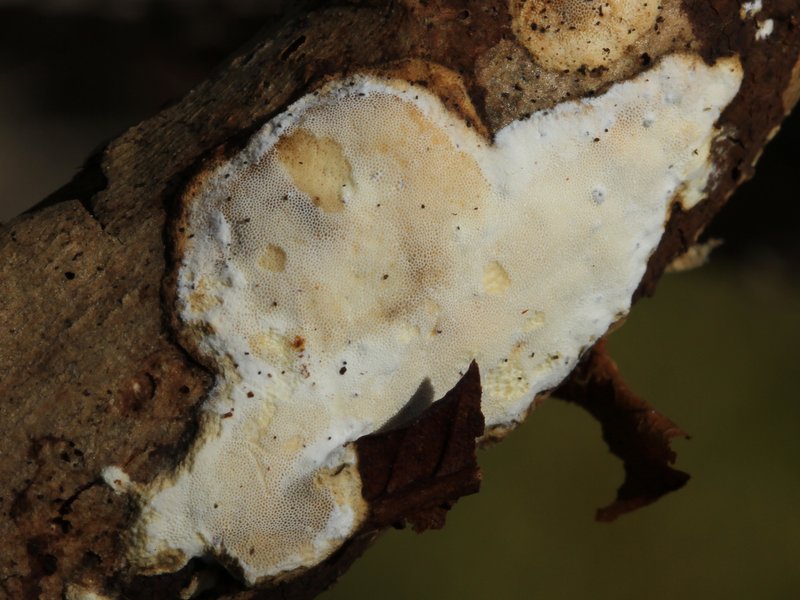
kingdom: Fungi
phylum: Basidiomycota
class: Agaricomycetes
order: Polyporales
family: Incrustoporiaceae
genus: Skeletocutis
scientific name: Skeletocutis nemoralis
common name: stor krystalporesvamp
